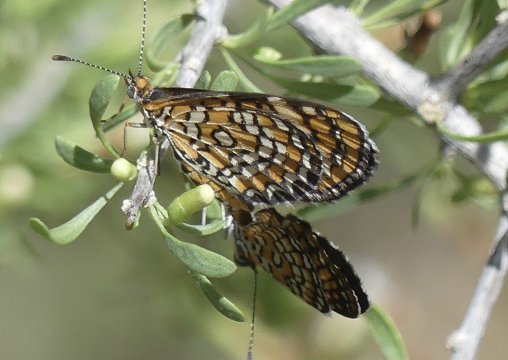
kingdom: Animalia
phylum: Arthropoda
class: Insecta
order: Lepidoptera
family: Nymphalidae
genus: Dymasia
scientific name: Dymasia dymas
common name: Tiny Checkerspot
